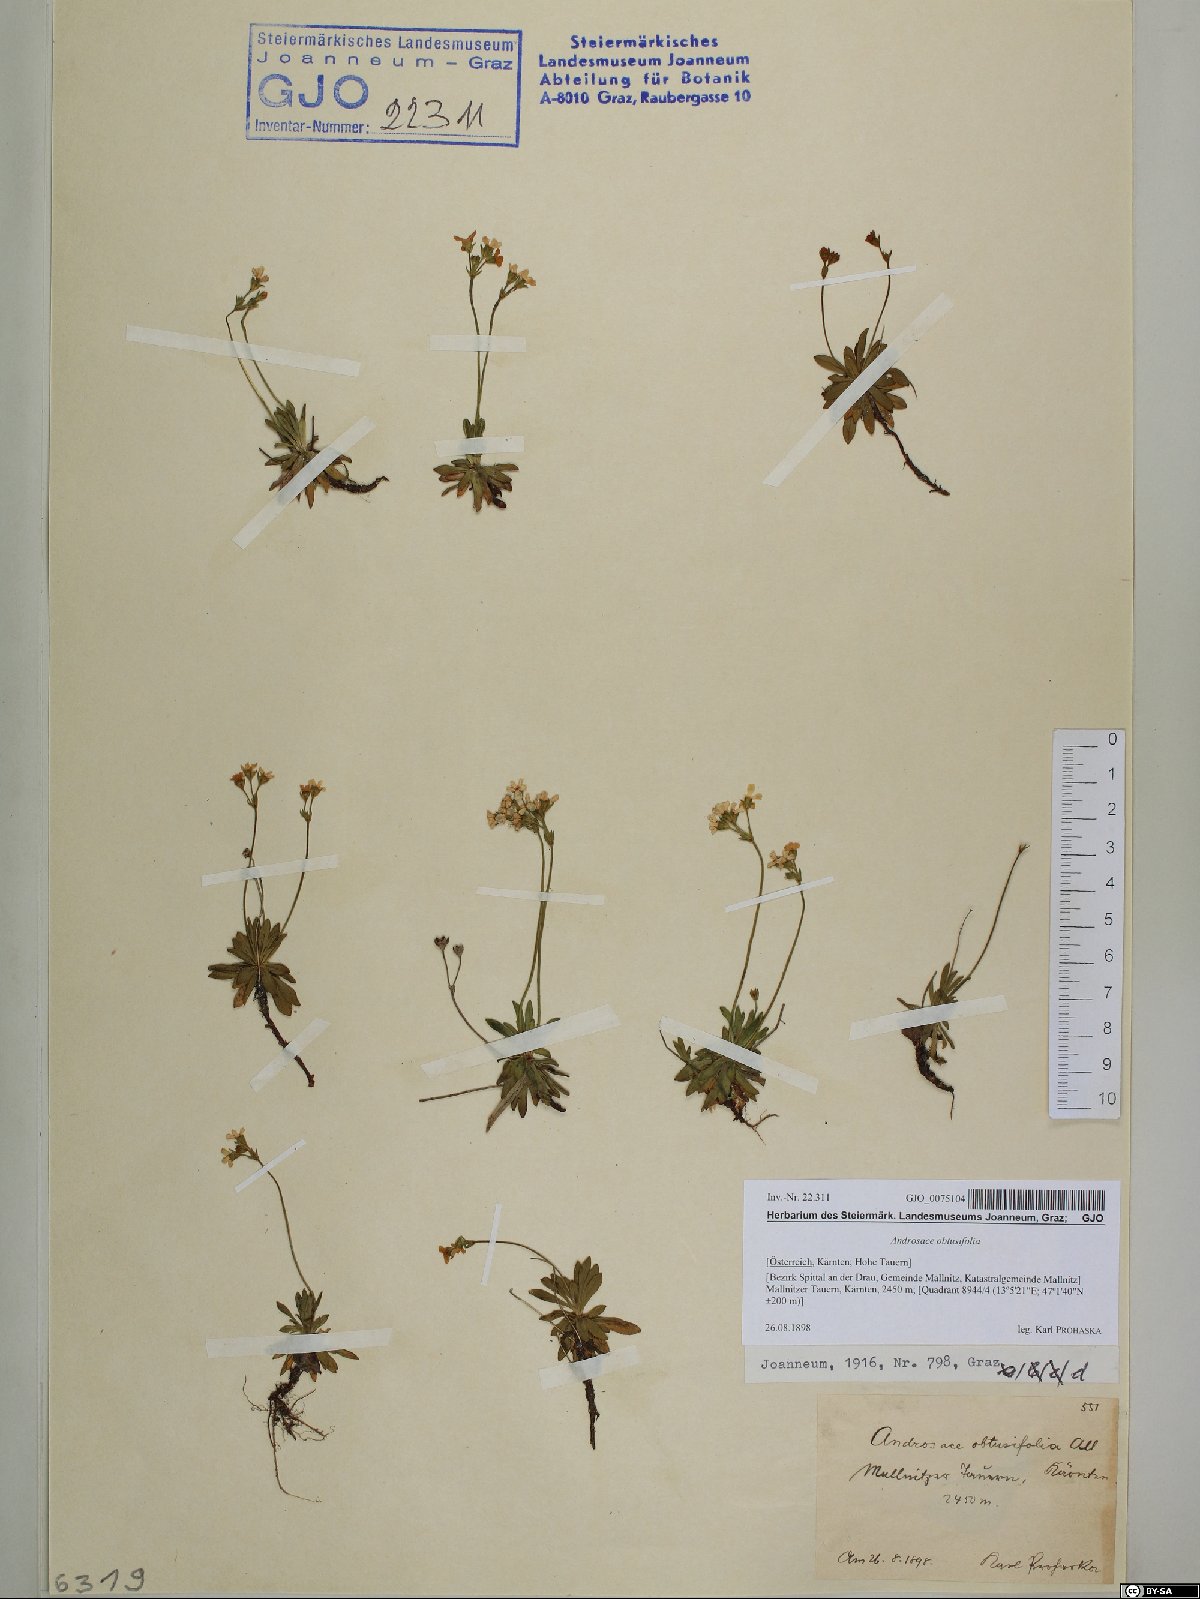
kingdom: Plantae
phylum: Tracheophyta
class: Magnoliopsida
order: Ericales
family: Primulaceae
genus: Androsace
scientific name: Androsace obtusifolia
